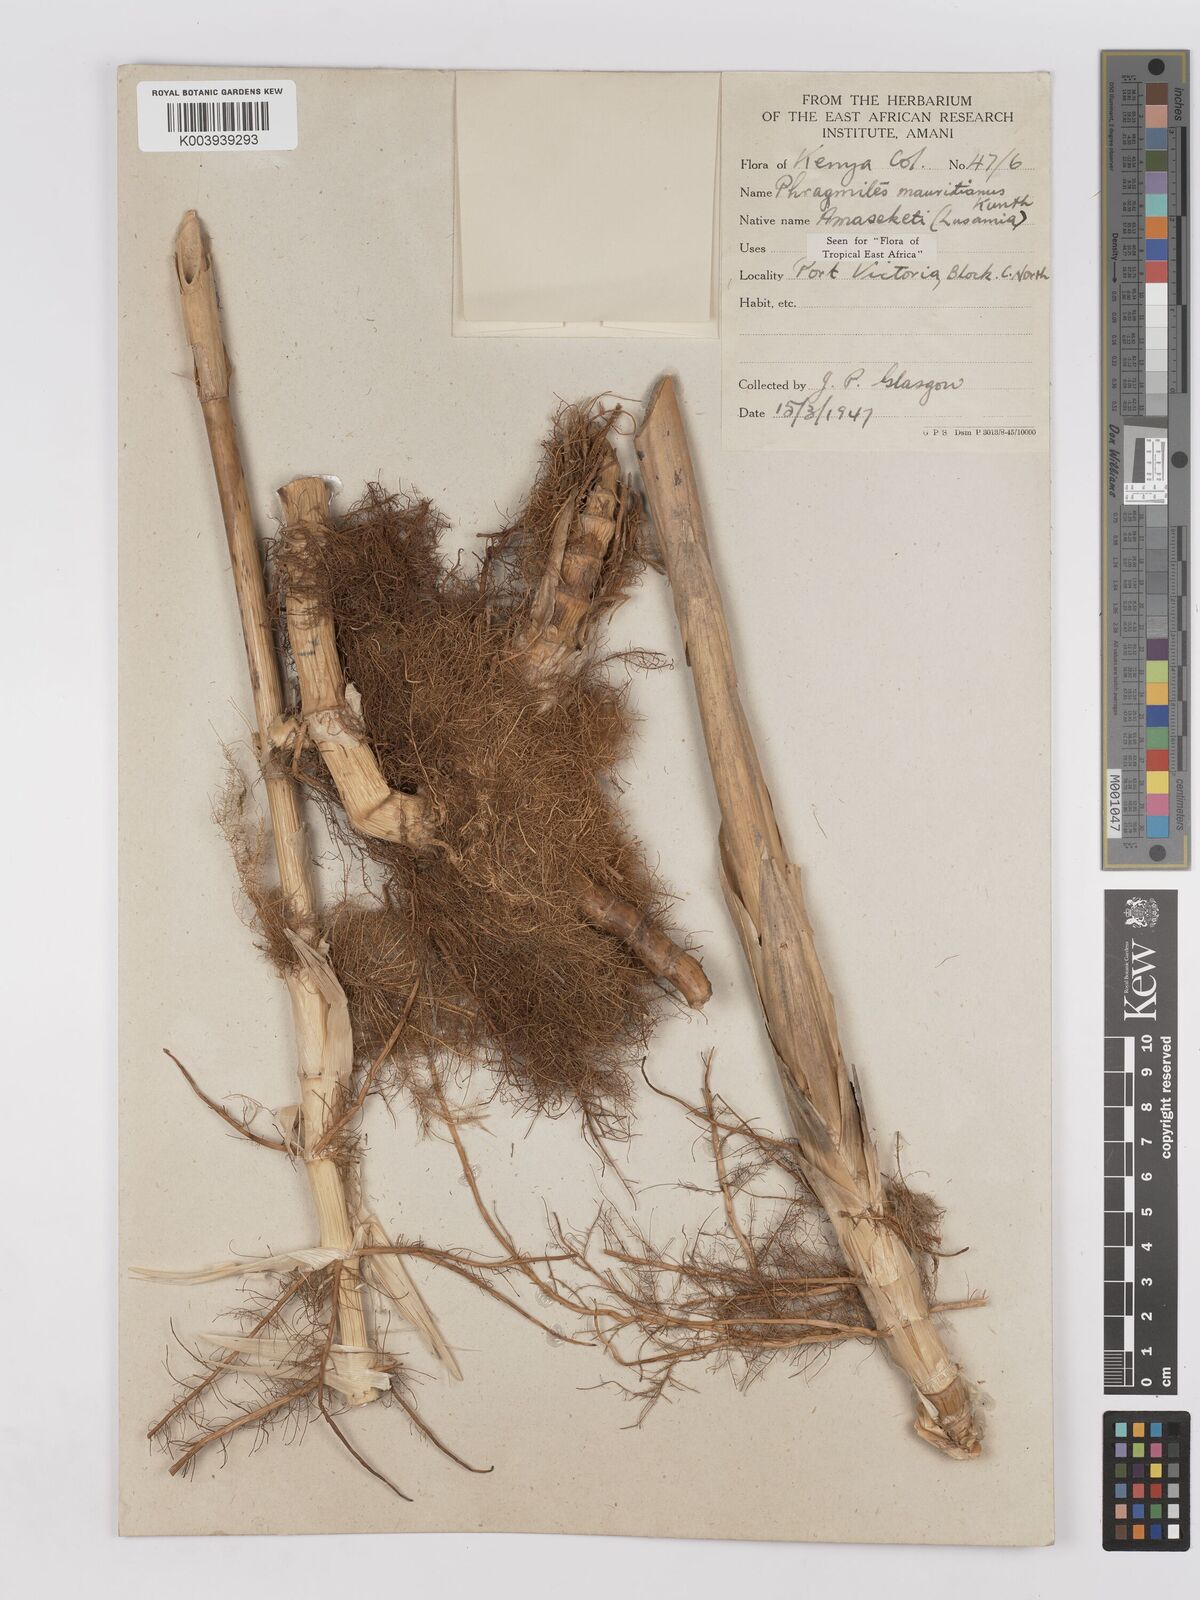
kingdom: Plantae
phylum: Tracheophyta
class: Liliopsida
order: Poales
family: Poaceae
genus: Phragmites
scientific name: Phragmites mauritianus
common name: Reed grass
